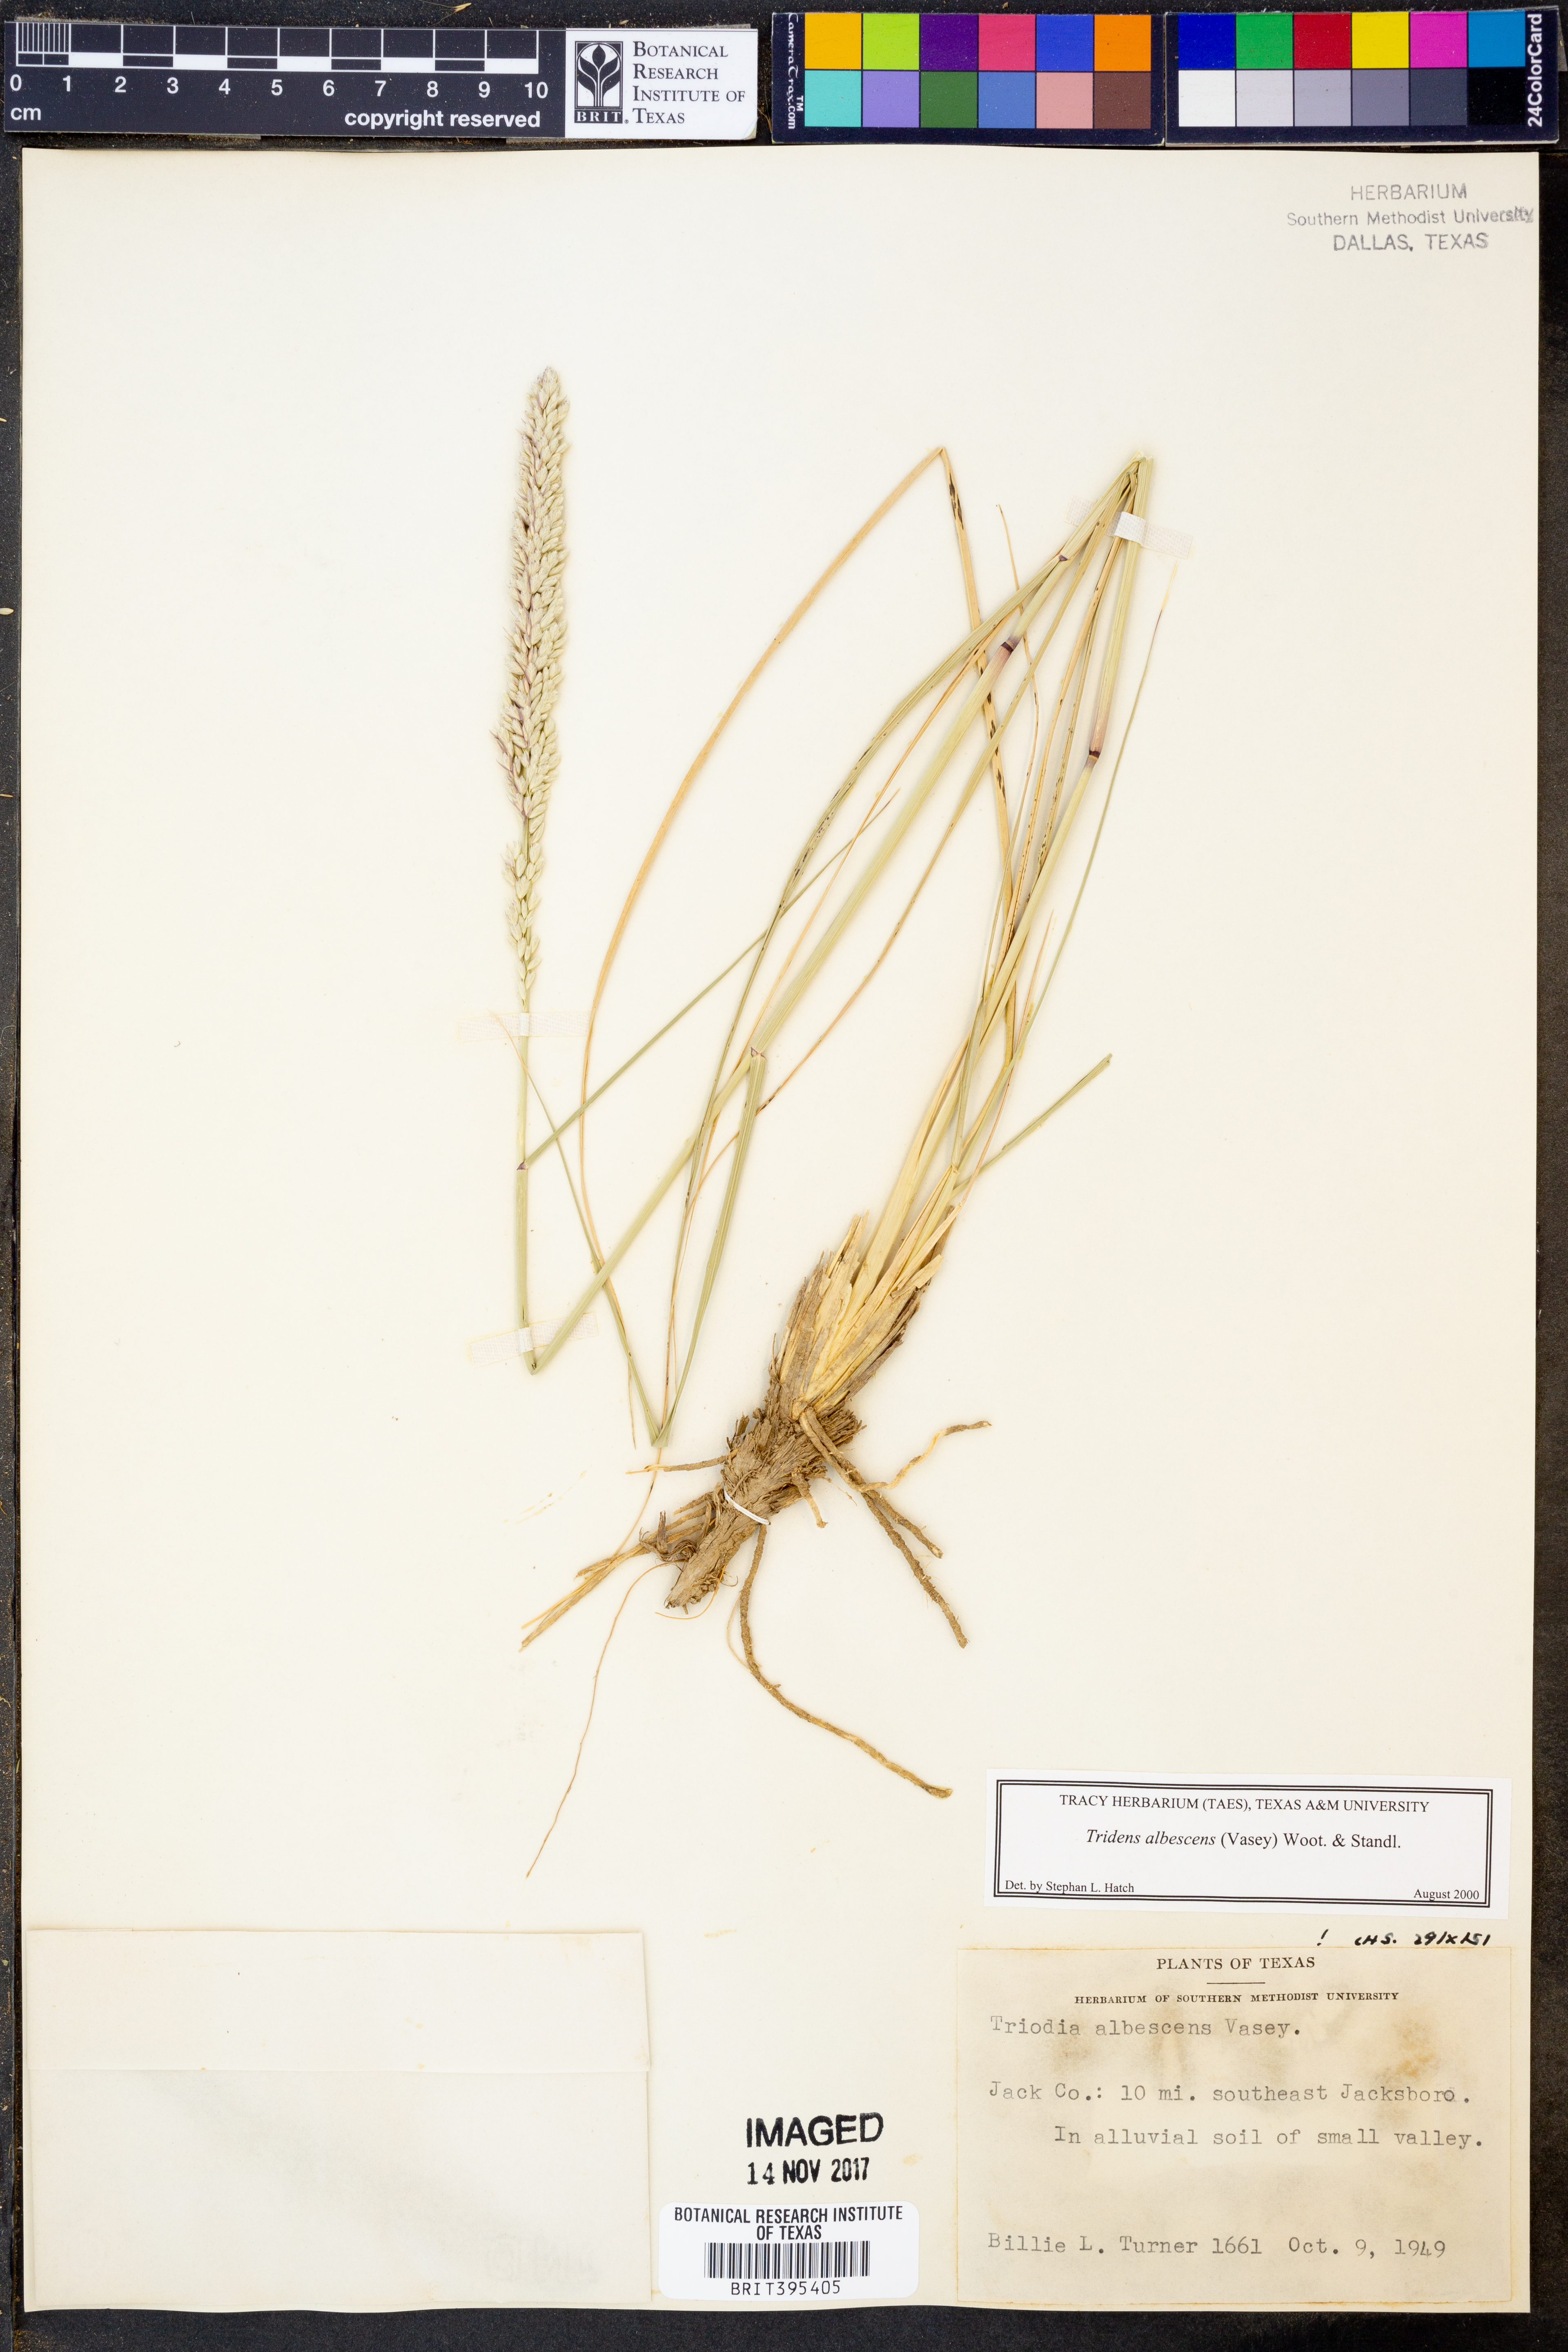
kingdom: Plantae
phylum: Tracheophyta
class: Liliopsida
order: Poales
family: Poaceae
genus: Tridens
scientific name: Tridens albescens
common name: White tridens
